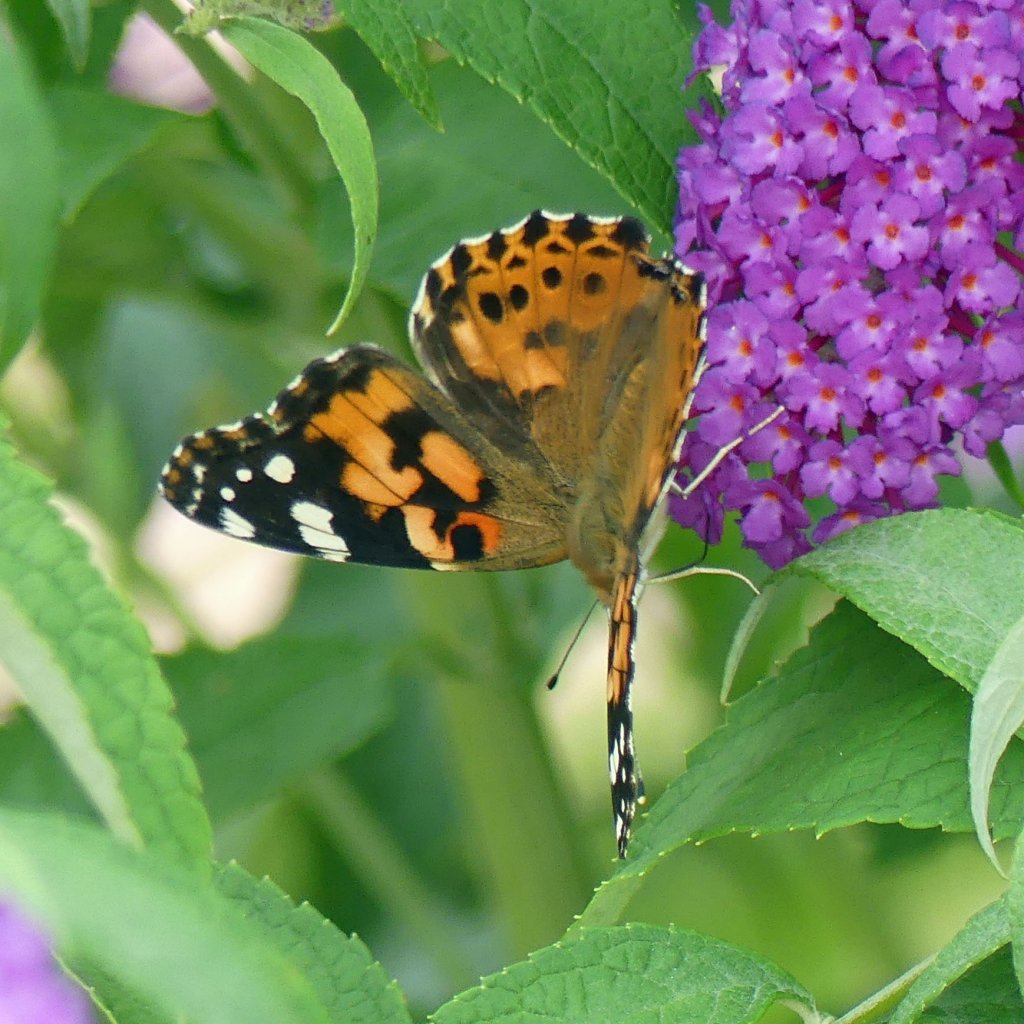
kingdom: Animalia
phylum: Arthropoda
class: Insecta
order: Lepidoptera
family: Nymphalidae
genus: Vanessa
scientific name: Vanessa cardui
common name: Painted Lady
